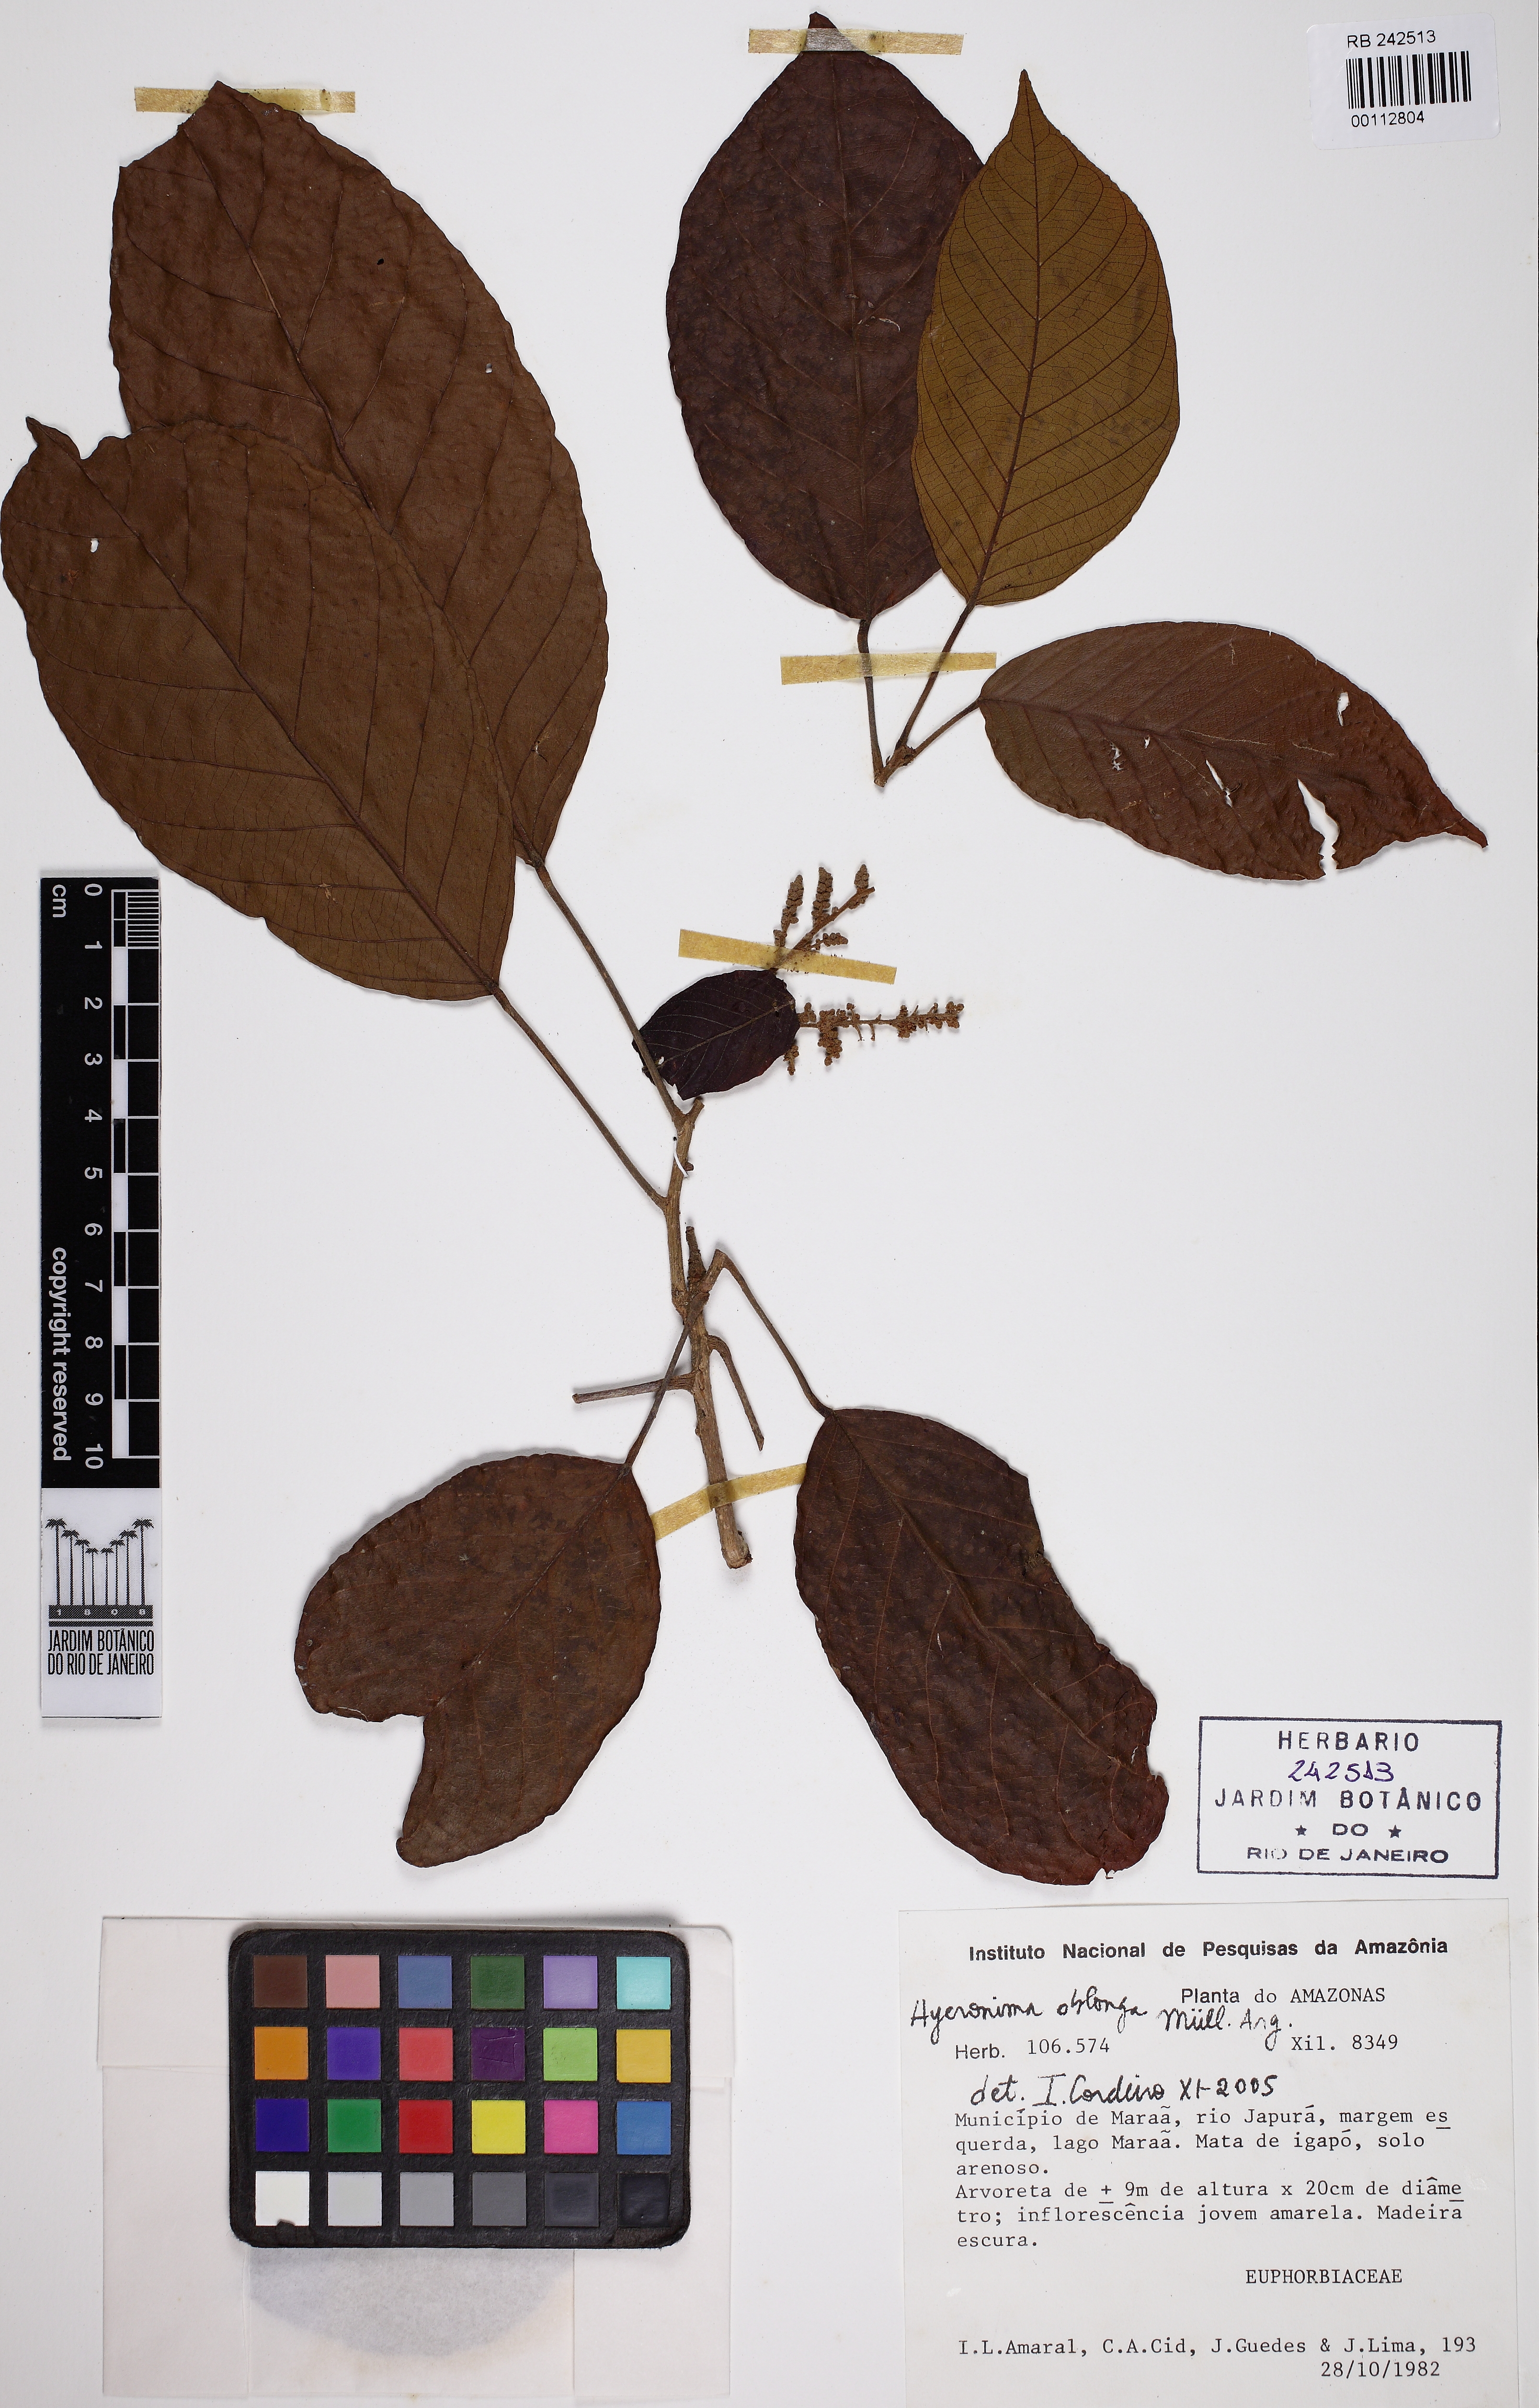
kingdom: Plantae
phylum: Tracheophyta
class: Magnoliopsida
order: Malpighiales
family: Phyllanthaceae
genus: Hieronyma
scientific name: Hieronyma oblonga
